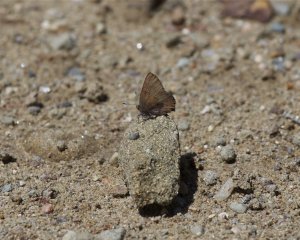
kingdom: Animalia
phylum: Arthropoda
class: Insecta
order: Lepidoptera
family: Lycaenidae
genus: Incisalia
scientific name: Incisalia irioides
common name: Brown Elfin
